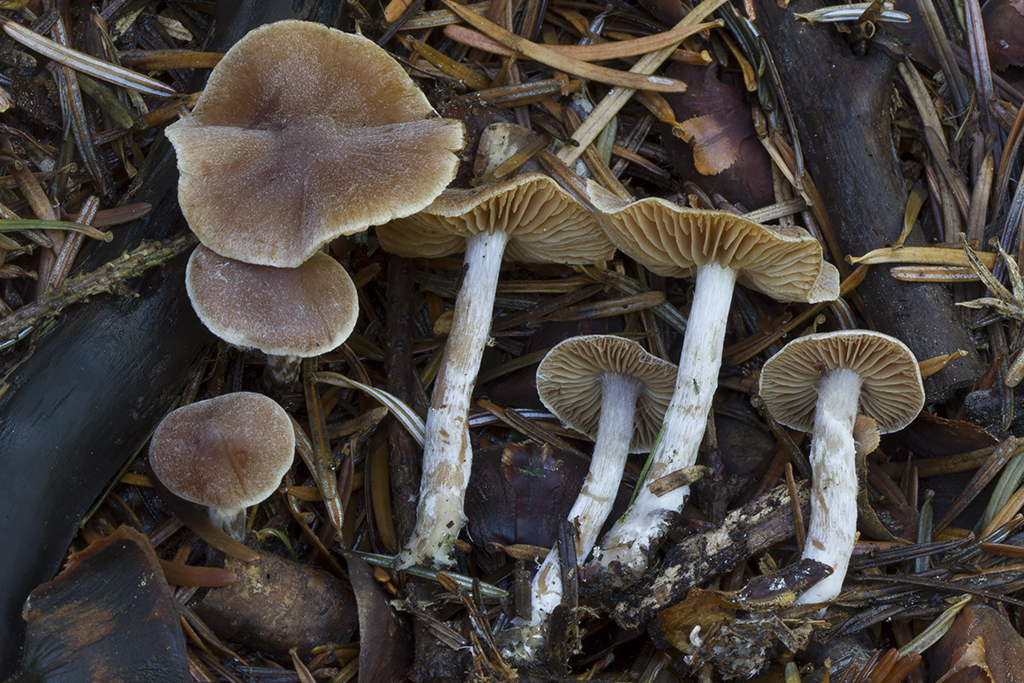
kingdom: Fungi
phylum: Basidiomycota
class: Agaricomycetes
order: Agaricales
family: Cortinariaceae
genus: Cortinarius
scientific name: Cortinarius comptulus
